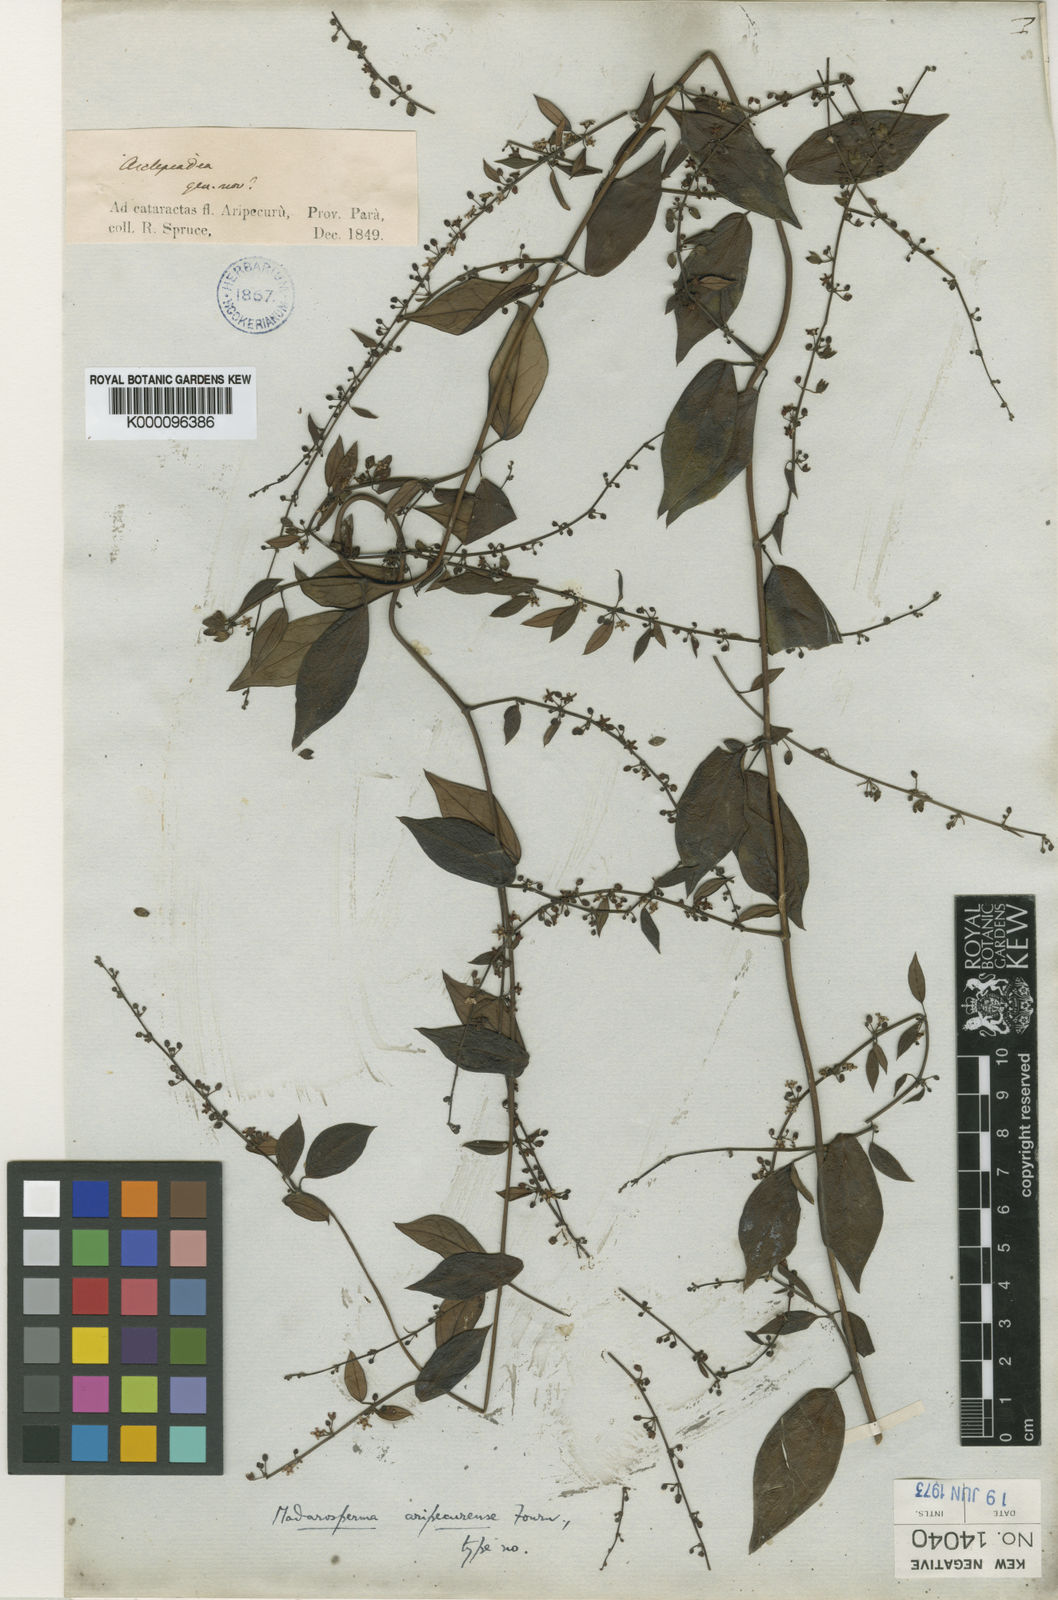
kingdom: Plantae
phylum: Tracheophyta
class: Magnoliopsida
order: Gentianales
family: Apocynaceae
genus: Tassadia
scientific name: Tassadia martiana
